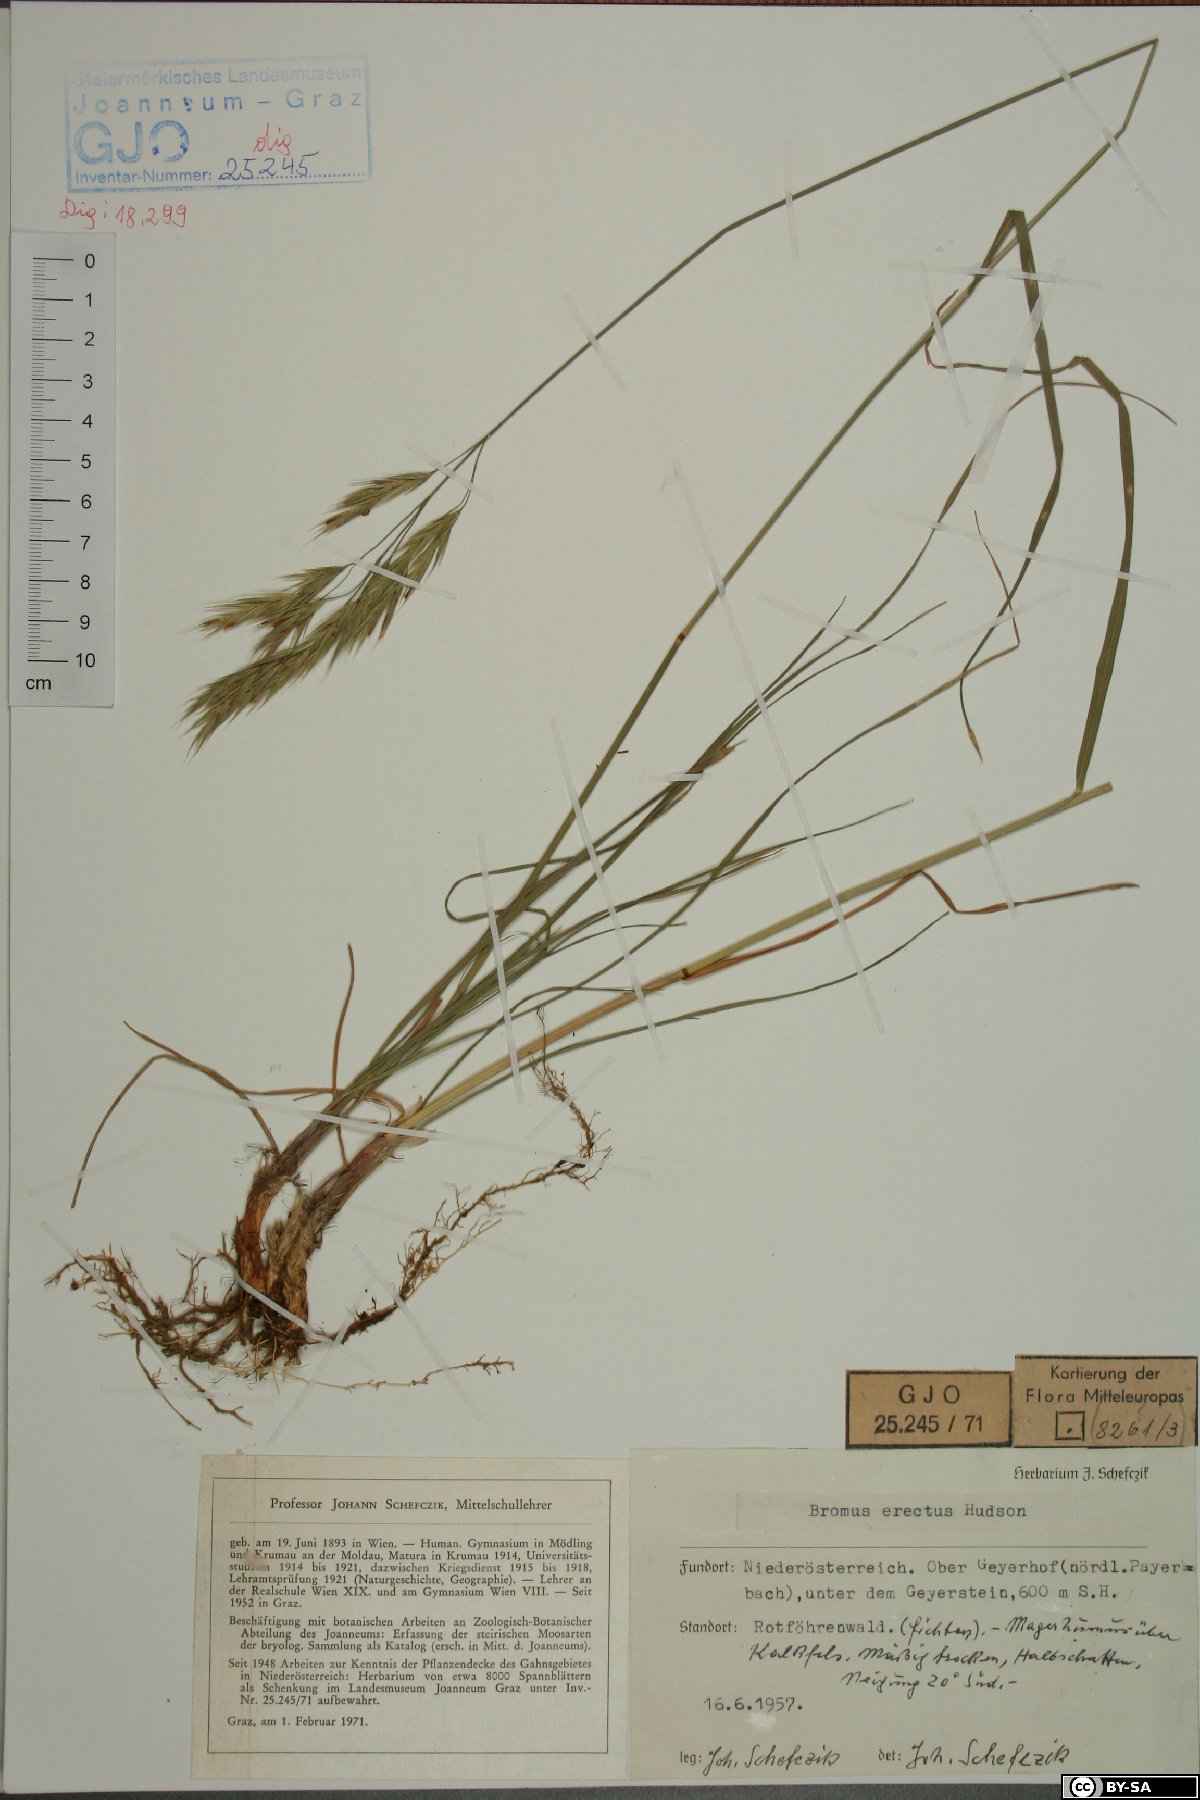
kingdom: Plantae
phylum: Tracheophyta
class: Liliopsida
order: Poales
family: Poaceae
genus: Bromus
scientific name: Bromus erectus
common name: Erect brome
